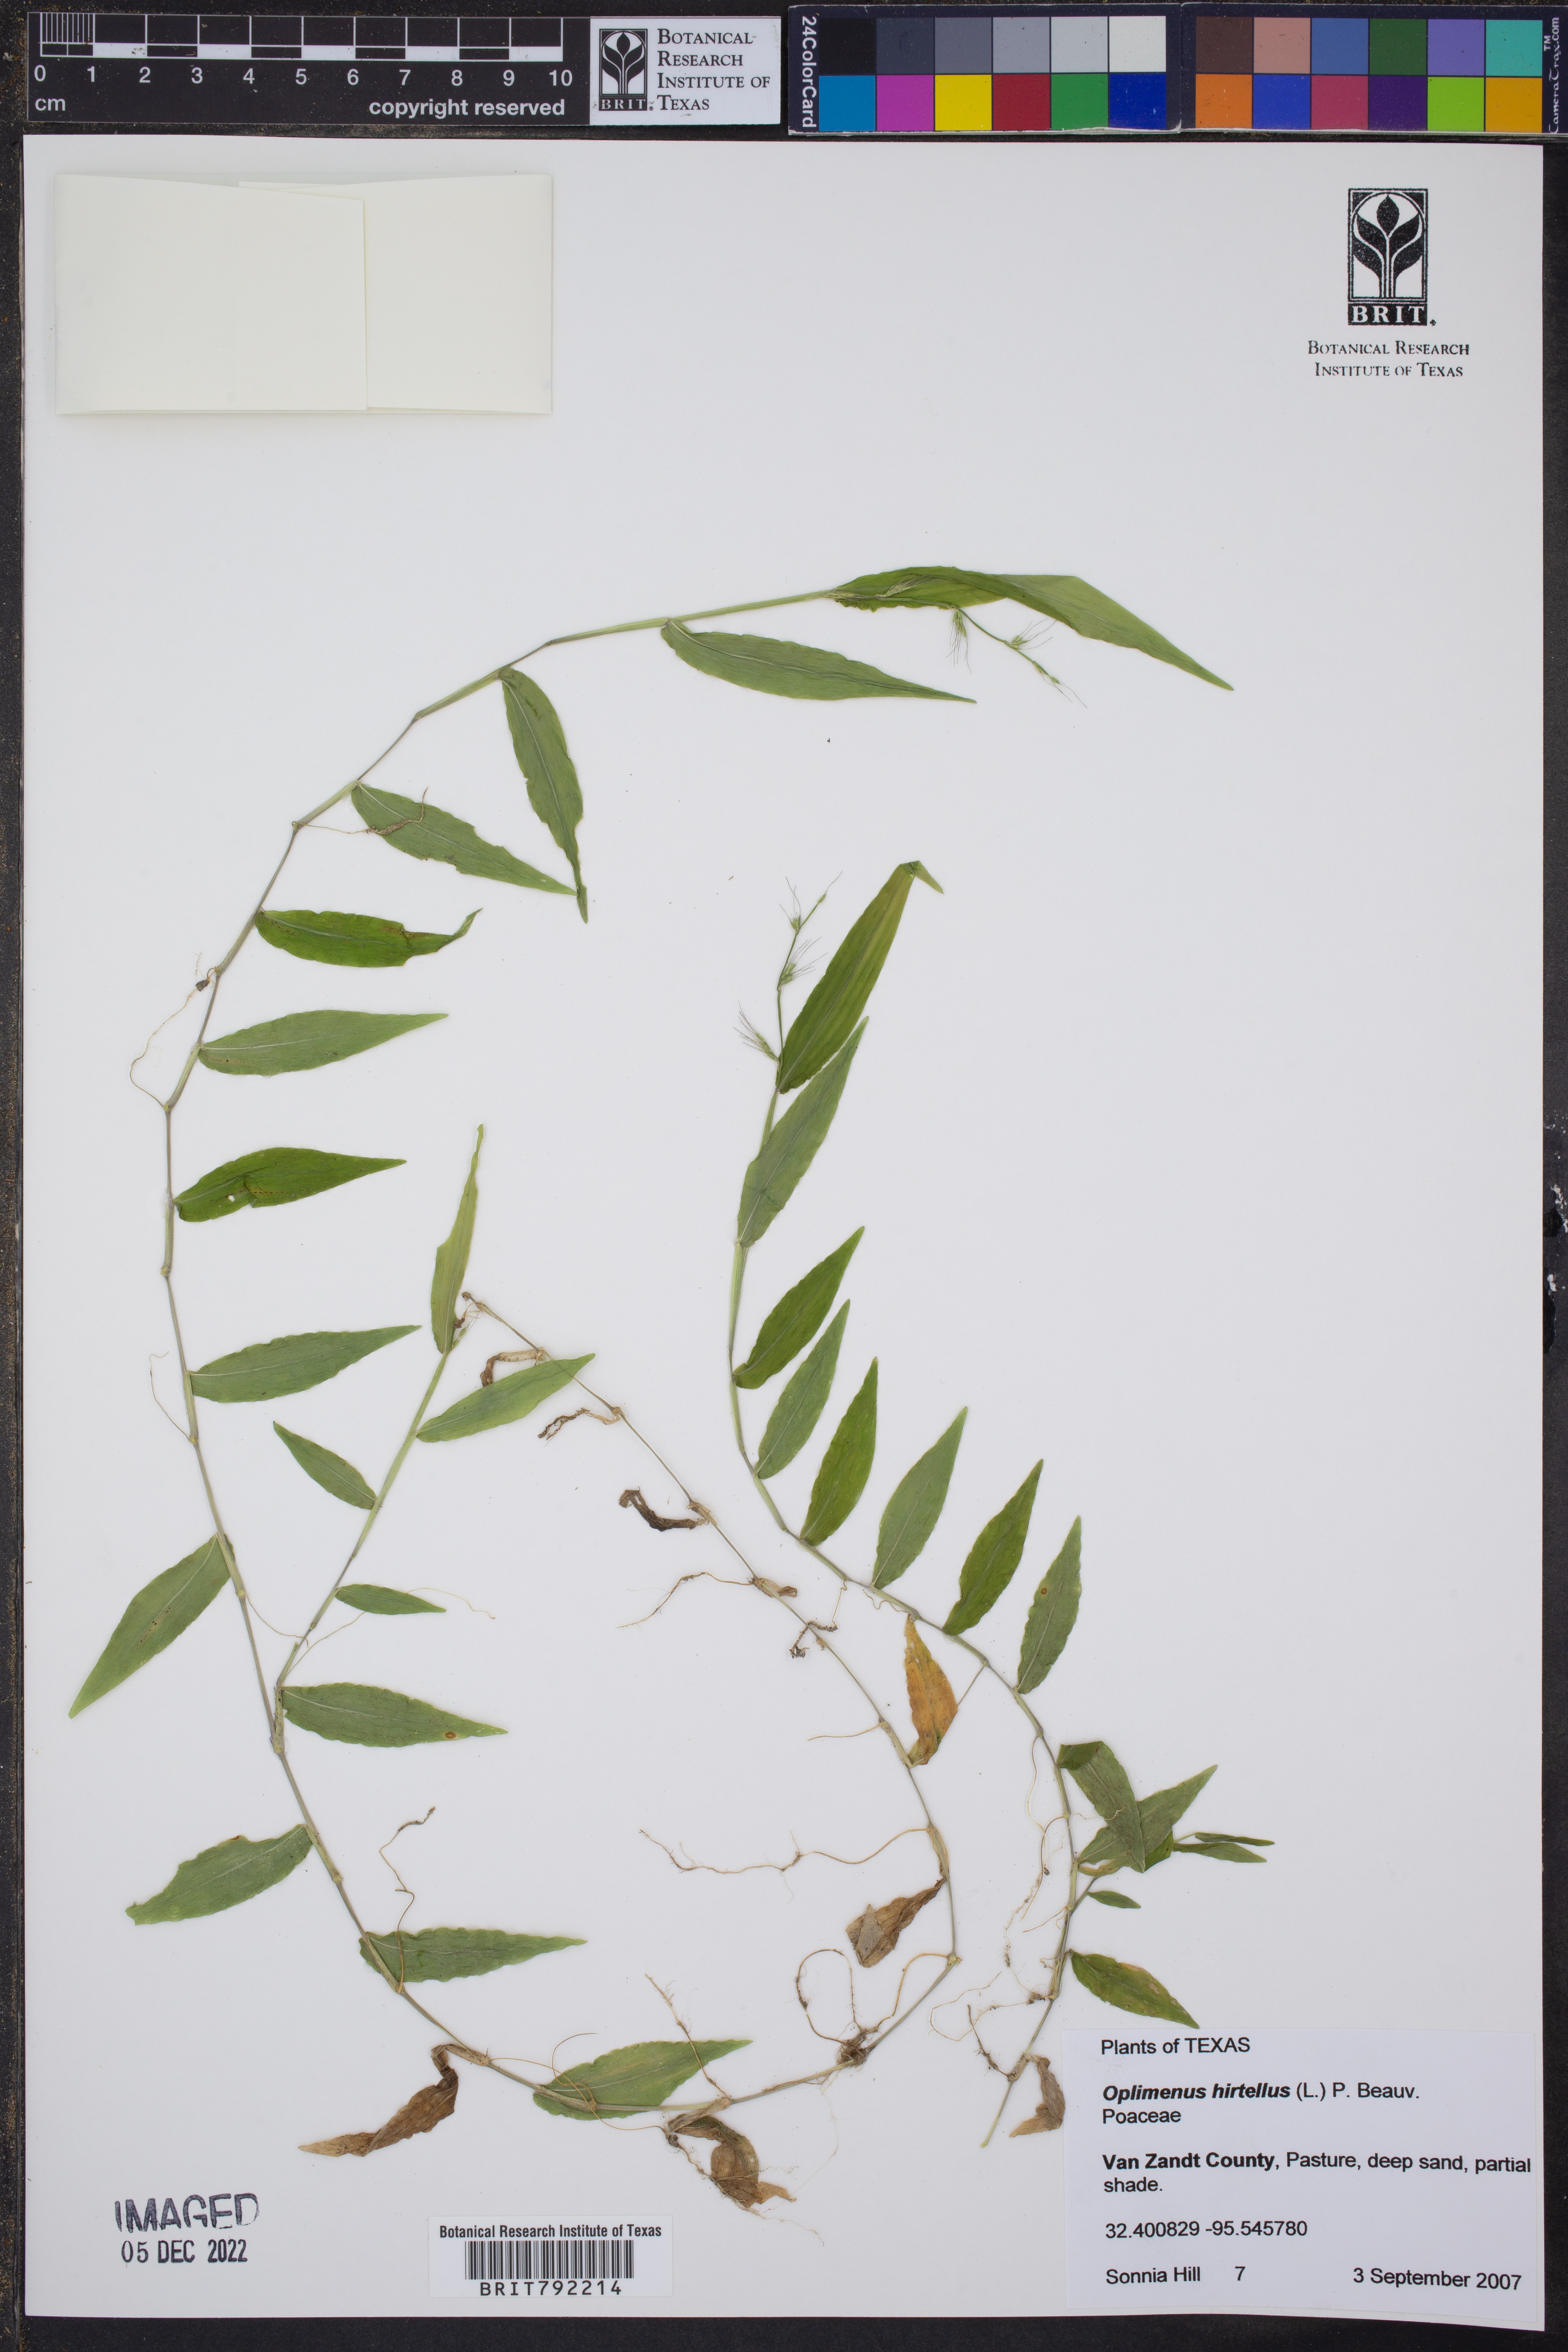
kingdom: Plantae
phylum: Tracheophyta
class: Liliopsida
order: Poales
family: Poaceae
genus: Oplismenus
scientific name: Oplismenus hirtellus
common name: Basketgrass
